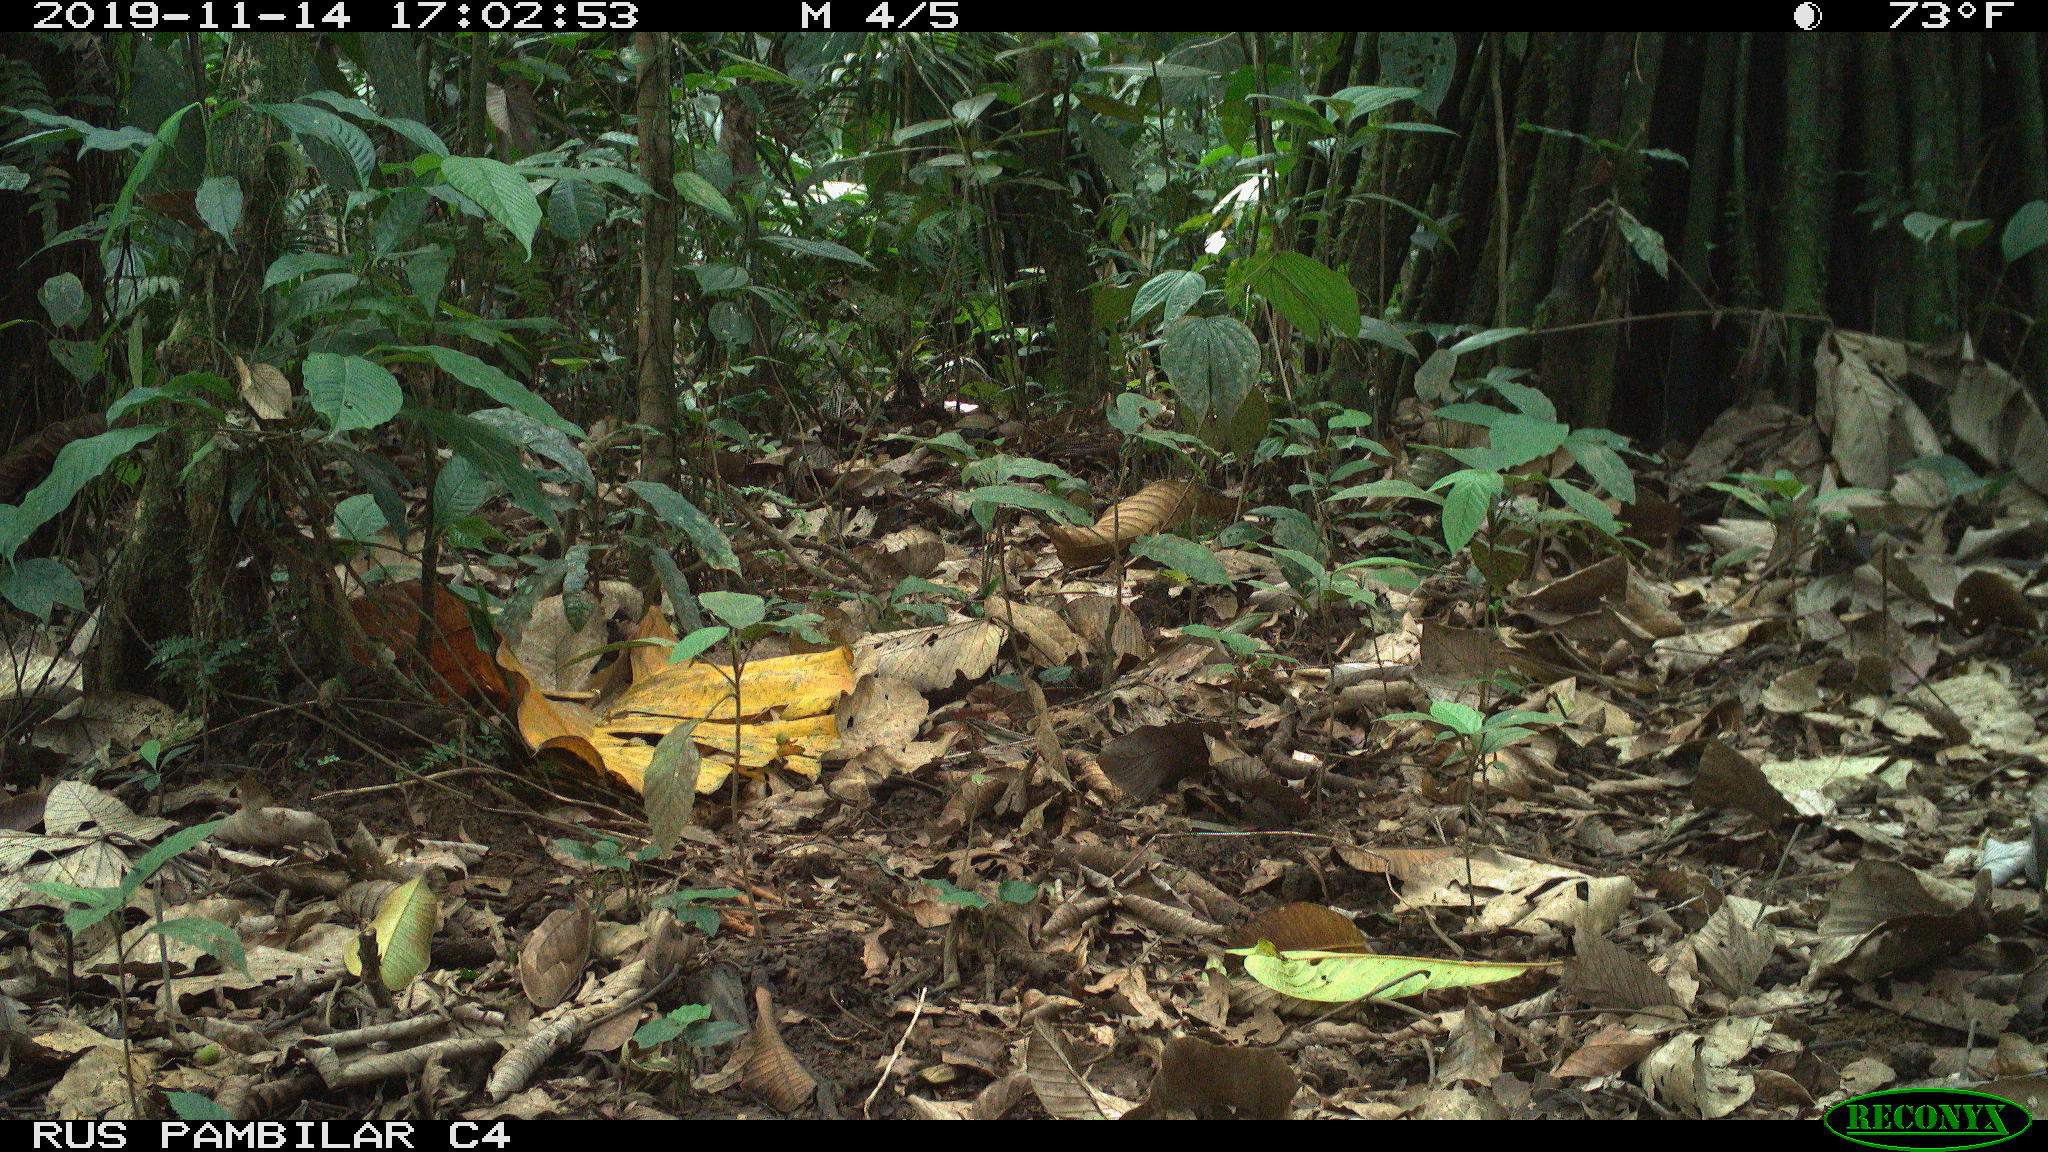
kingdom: Animalia
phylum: Chordata
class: Mammalia
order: Rodentia
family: Dasyproctidae
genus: Dasyprocta
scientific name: Dasyprocta punctata
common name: Central american agouti
